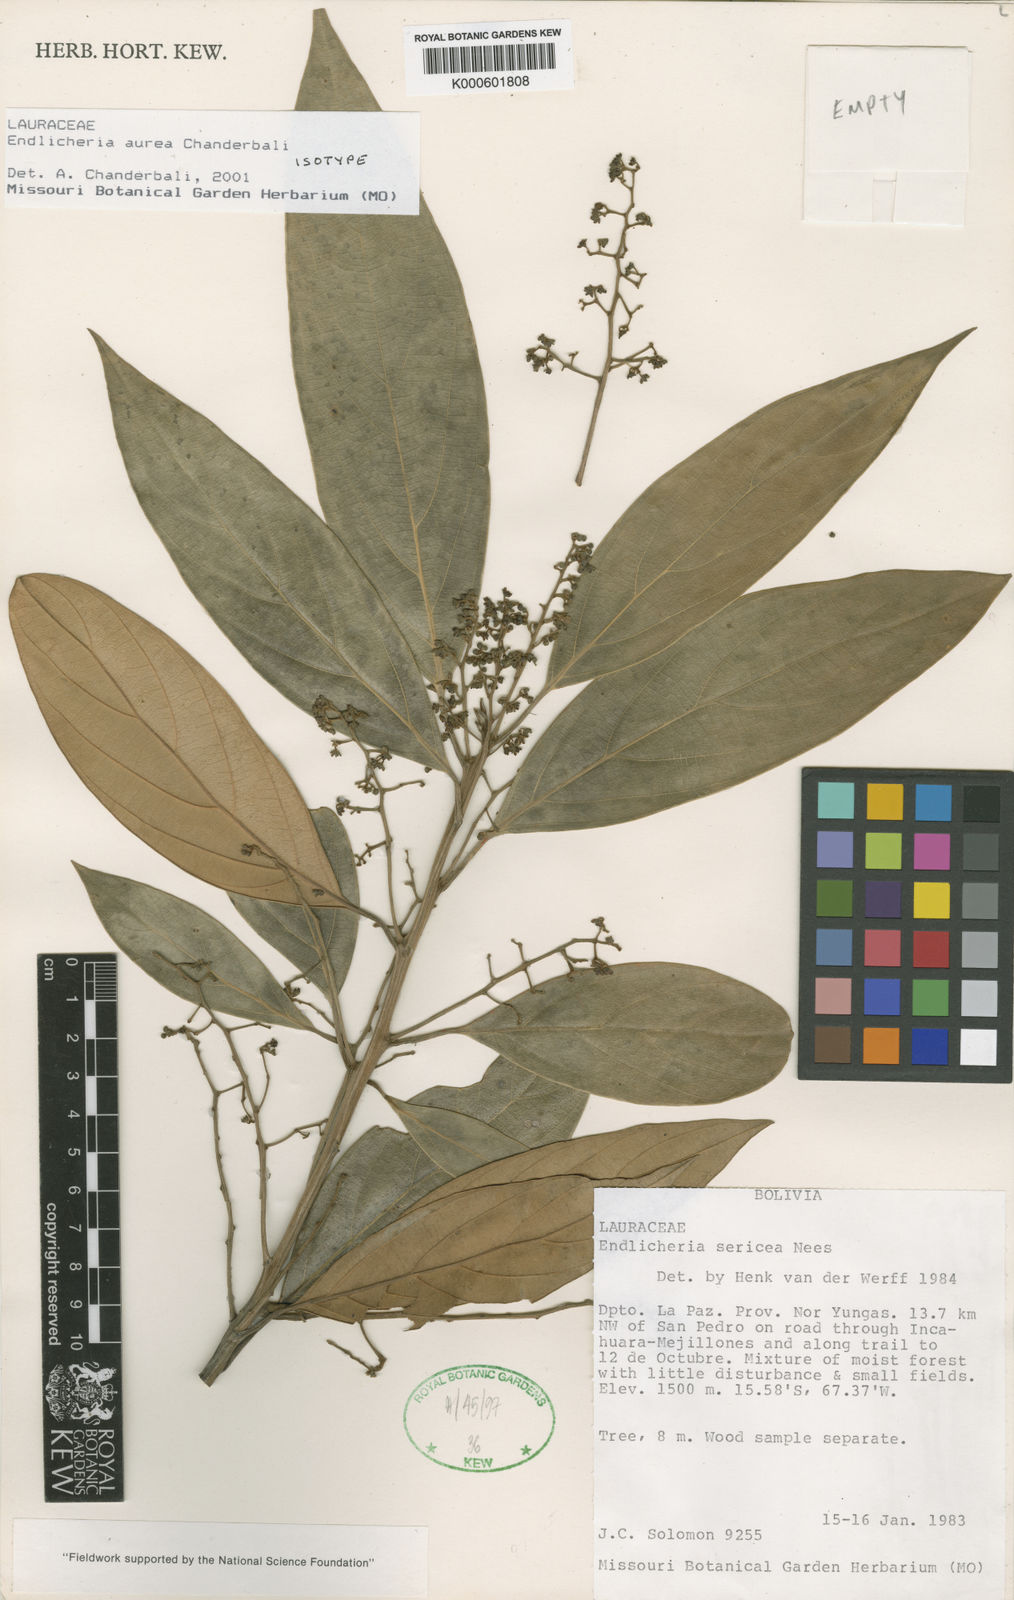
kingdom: Plantae
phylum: Tracheophyta
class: Magnoliopsida
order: Laurales
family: Lauraceae
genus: Endlicheria
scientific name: Endlicheria aurea
